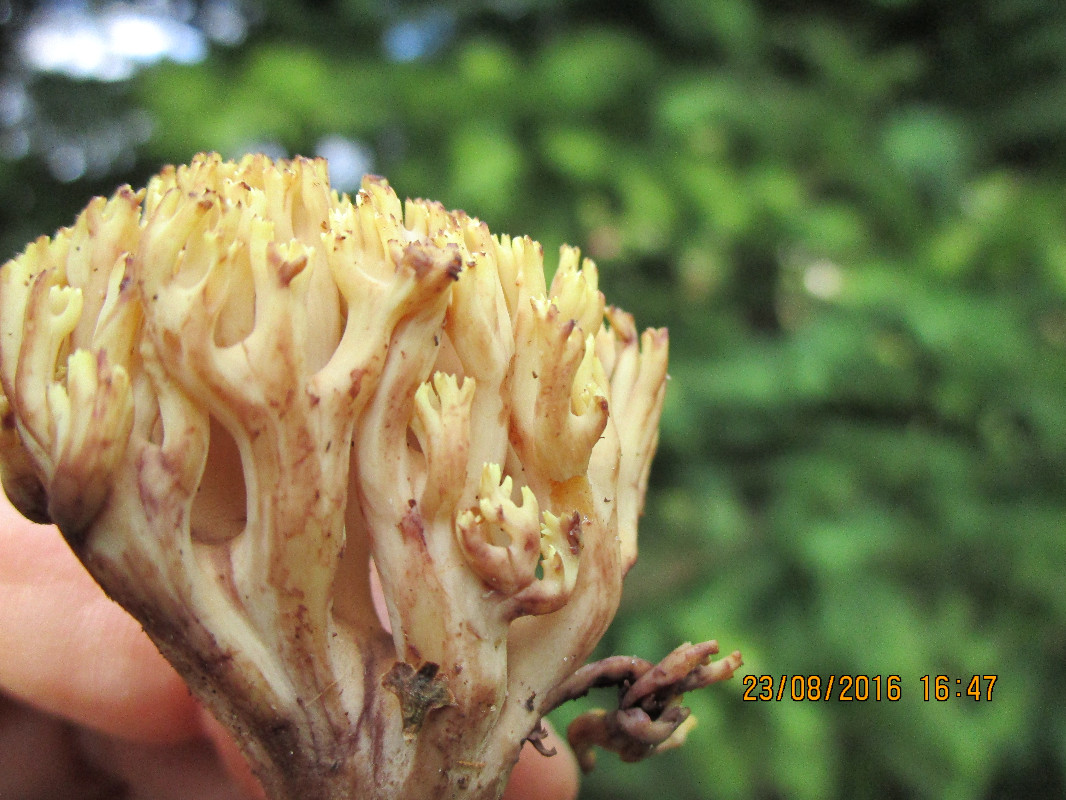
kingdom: Fungi
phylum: Basidiomycota
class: Agaricomycetes
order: Gomphales
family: Gomphaceae
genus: Ramaria
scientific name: Ramaria stricta
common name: rank koralsvamp
